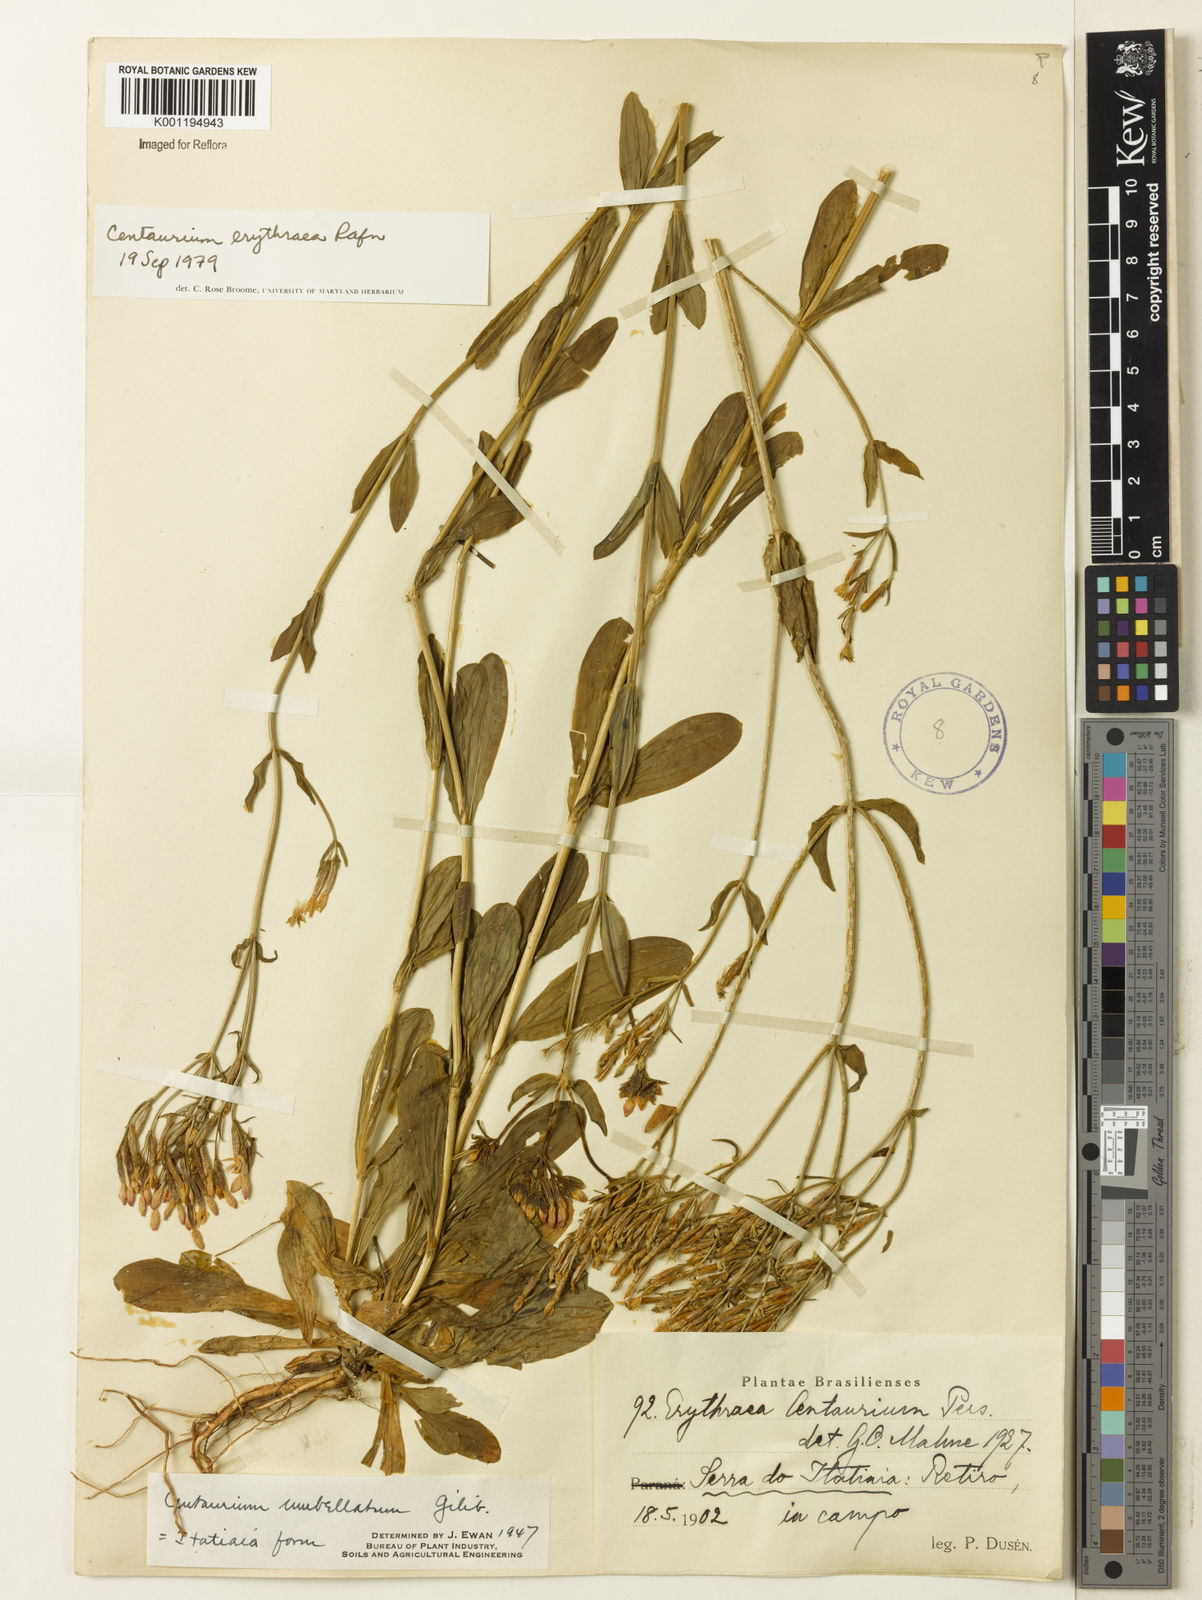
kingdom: Plantae
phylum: Tracheophyta
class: Magnoliopsida
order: Gentianales
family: Gentianaceae
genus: Centaurium
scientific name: Centaurium
